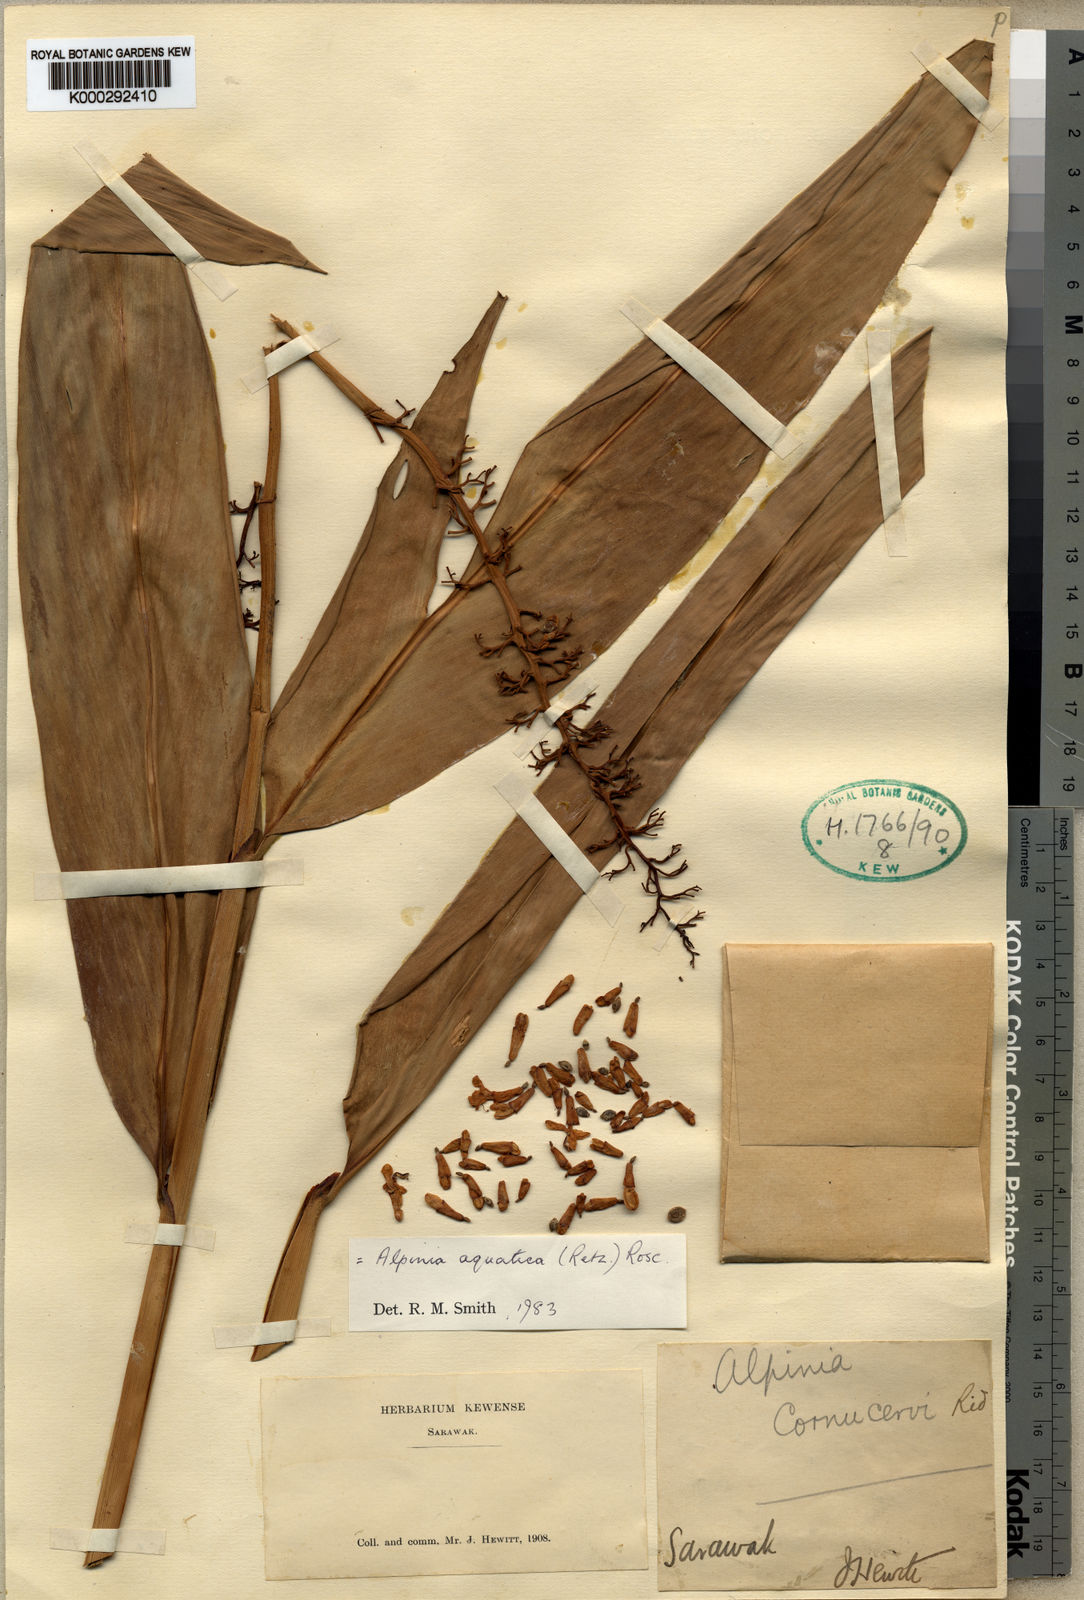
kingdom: Plantae
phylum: Tracheophyta
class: Liliopsida
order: Zingiberales
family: Zingiberaceae
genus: Alpinia
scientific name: Alpinia aquatica
